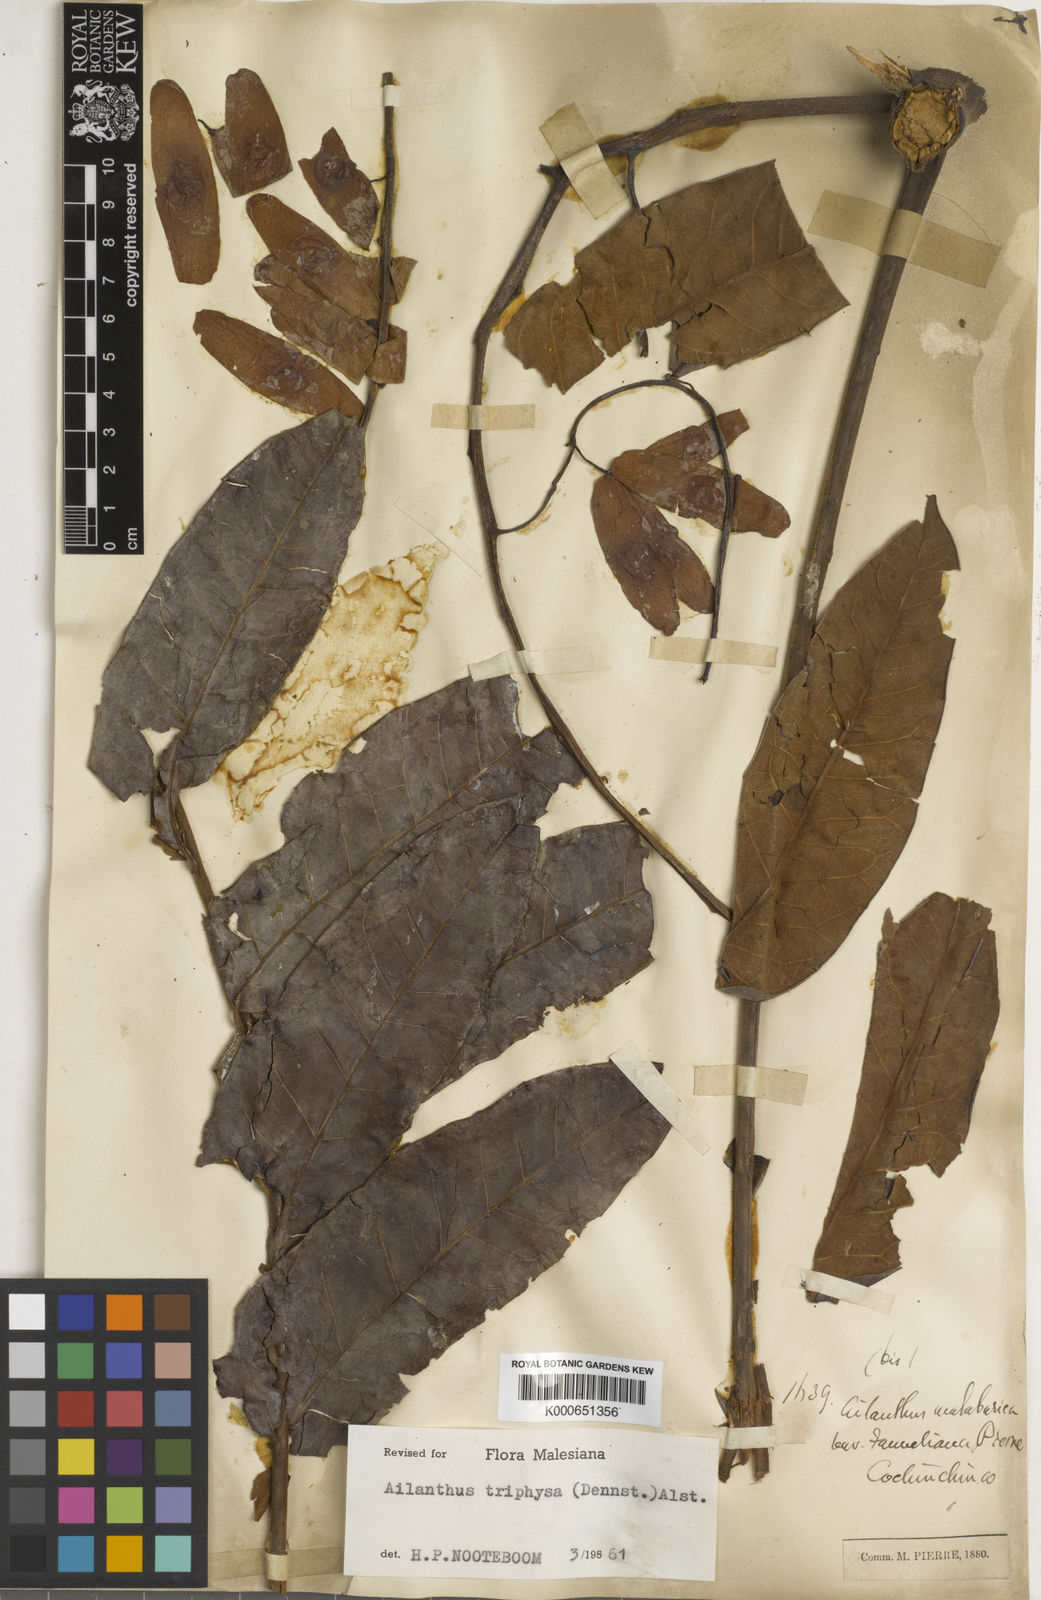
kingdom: Plantae
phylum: Tracheophyta
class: Magnoliopsida
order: Sapindales
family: Simaroubaceae
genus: Ailanthus
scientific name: Ailanthus
